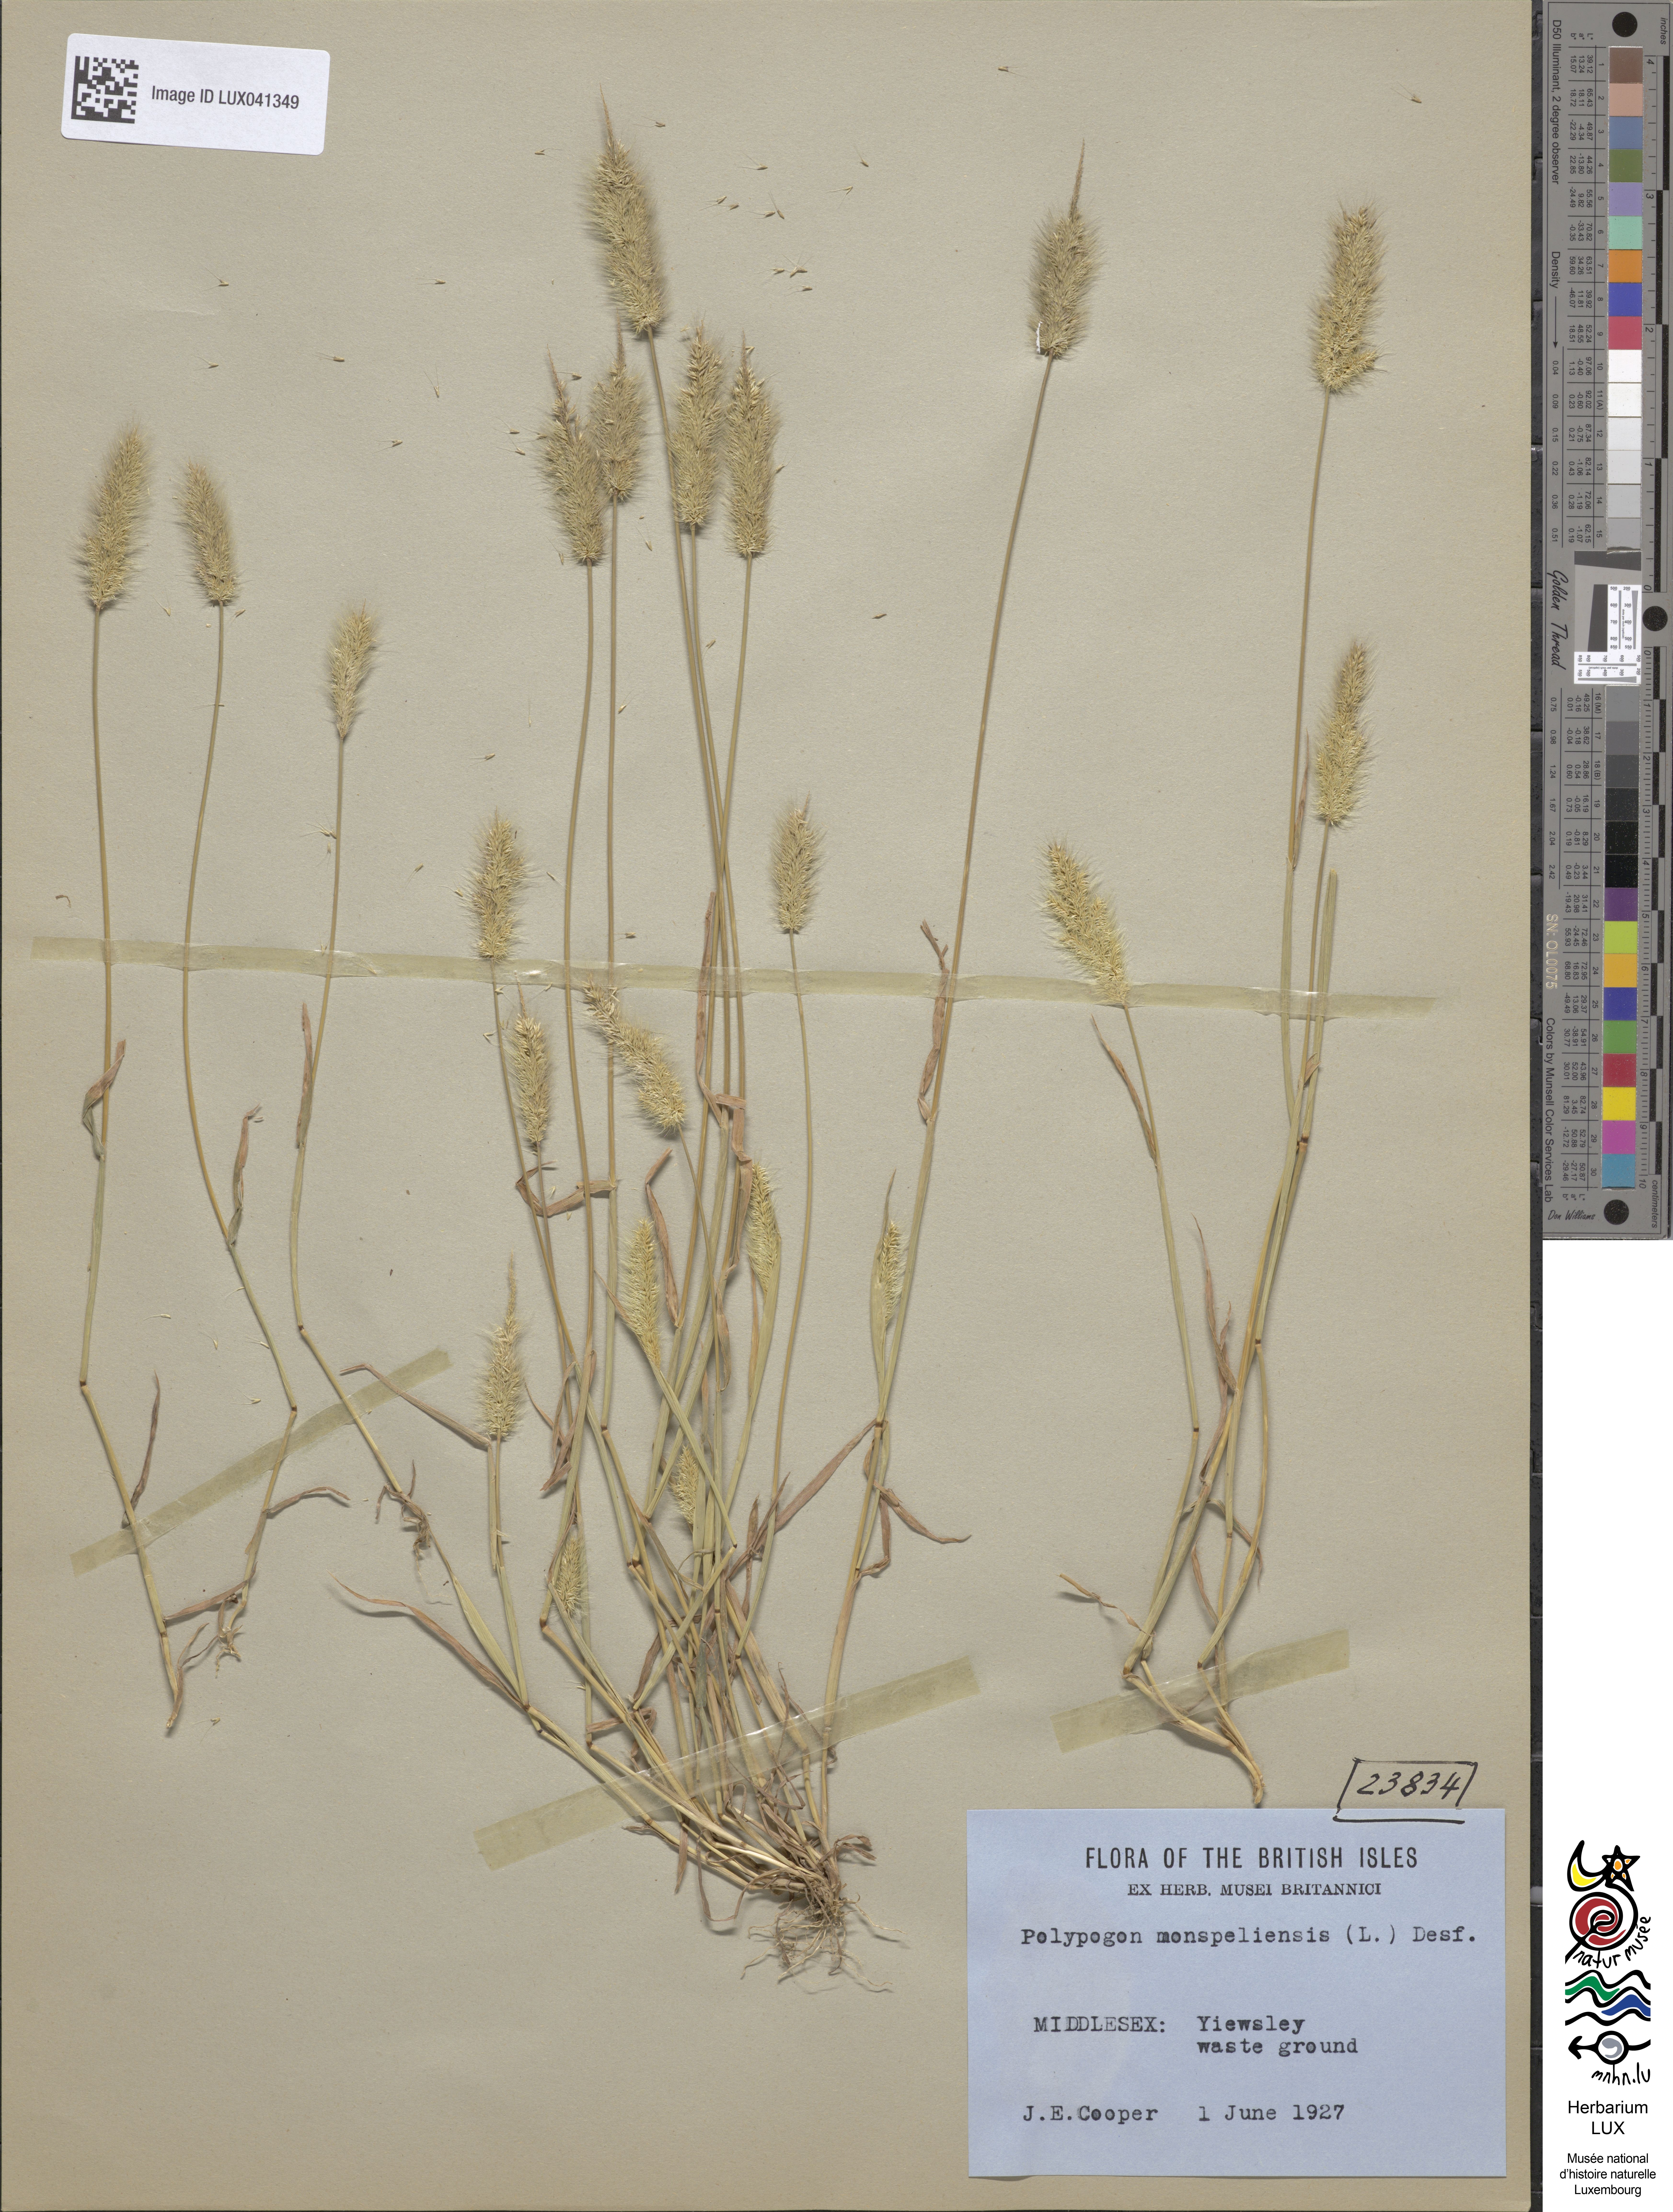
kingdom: Animalia
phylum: Arthropoda
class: Insecta
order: Lepidoptera
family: Erebidae
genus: Polypogon
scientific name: Polypogon
